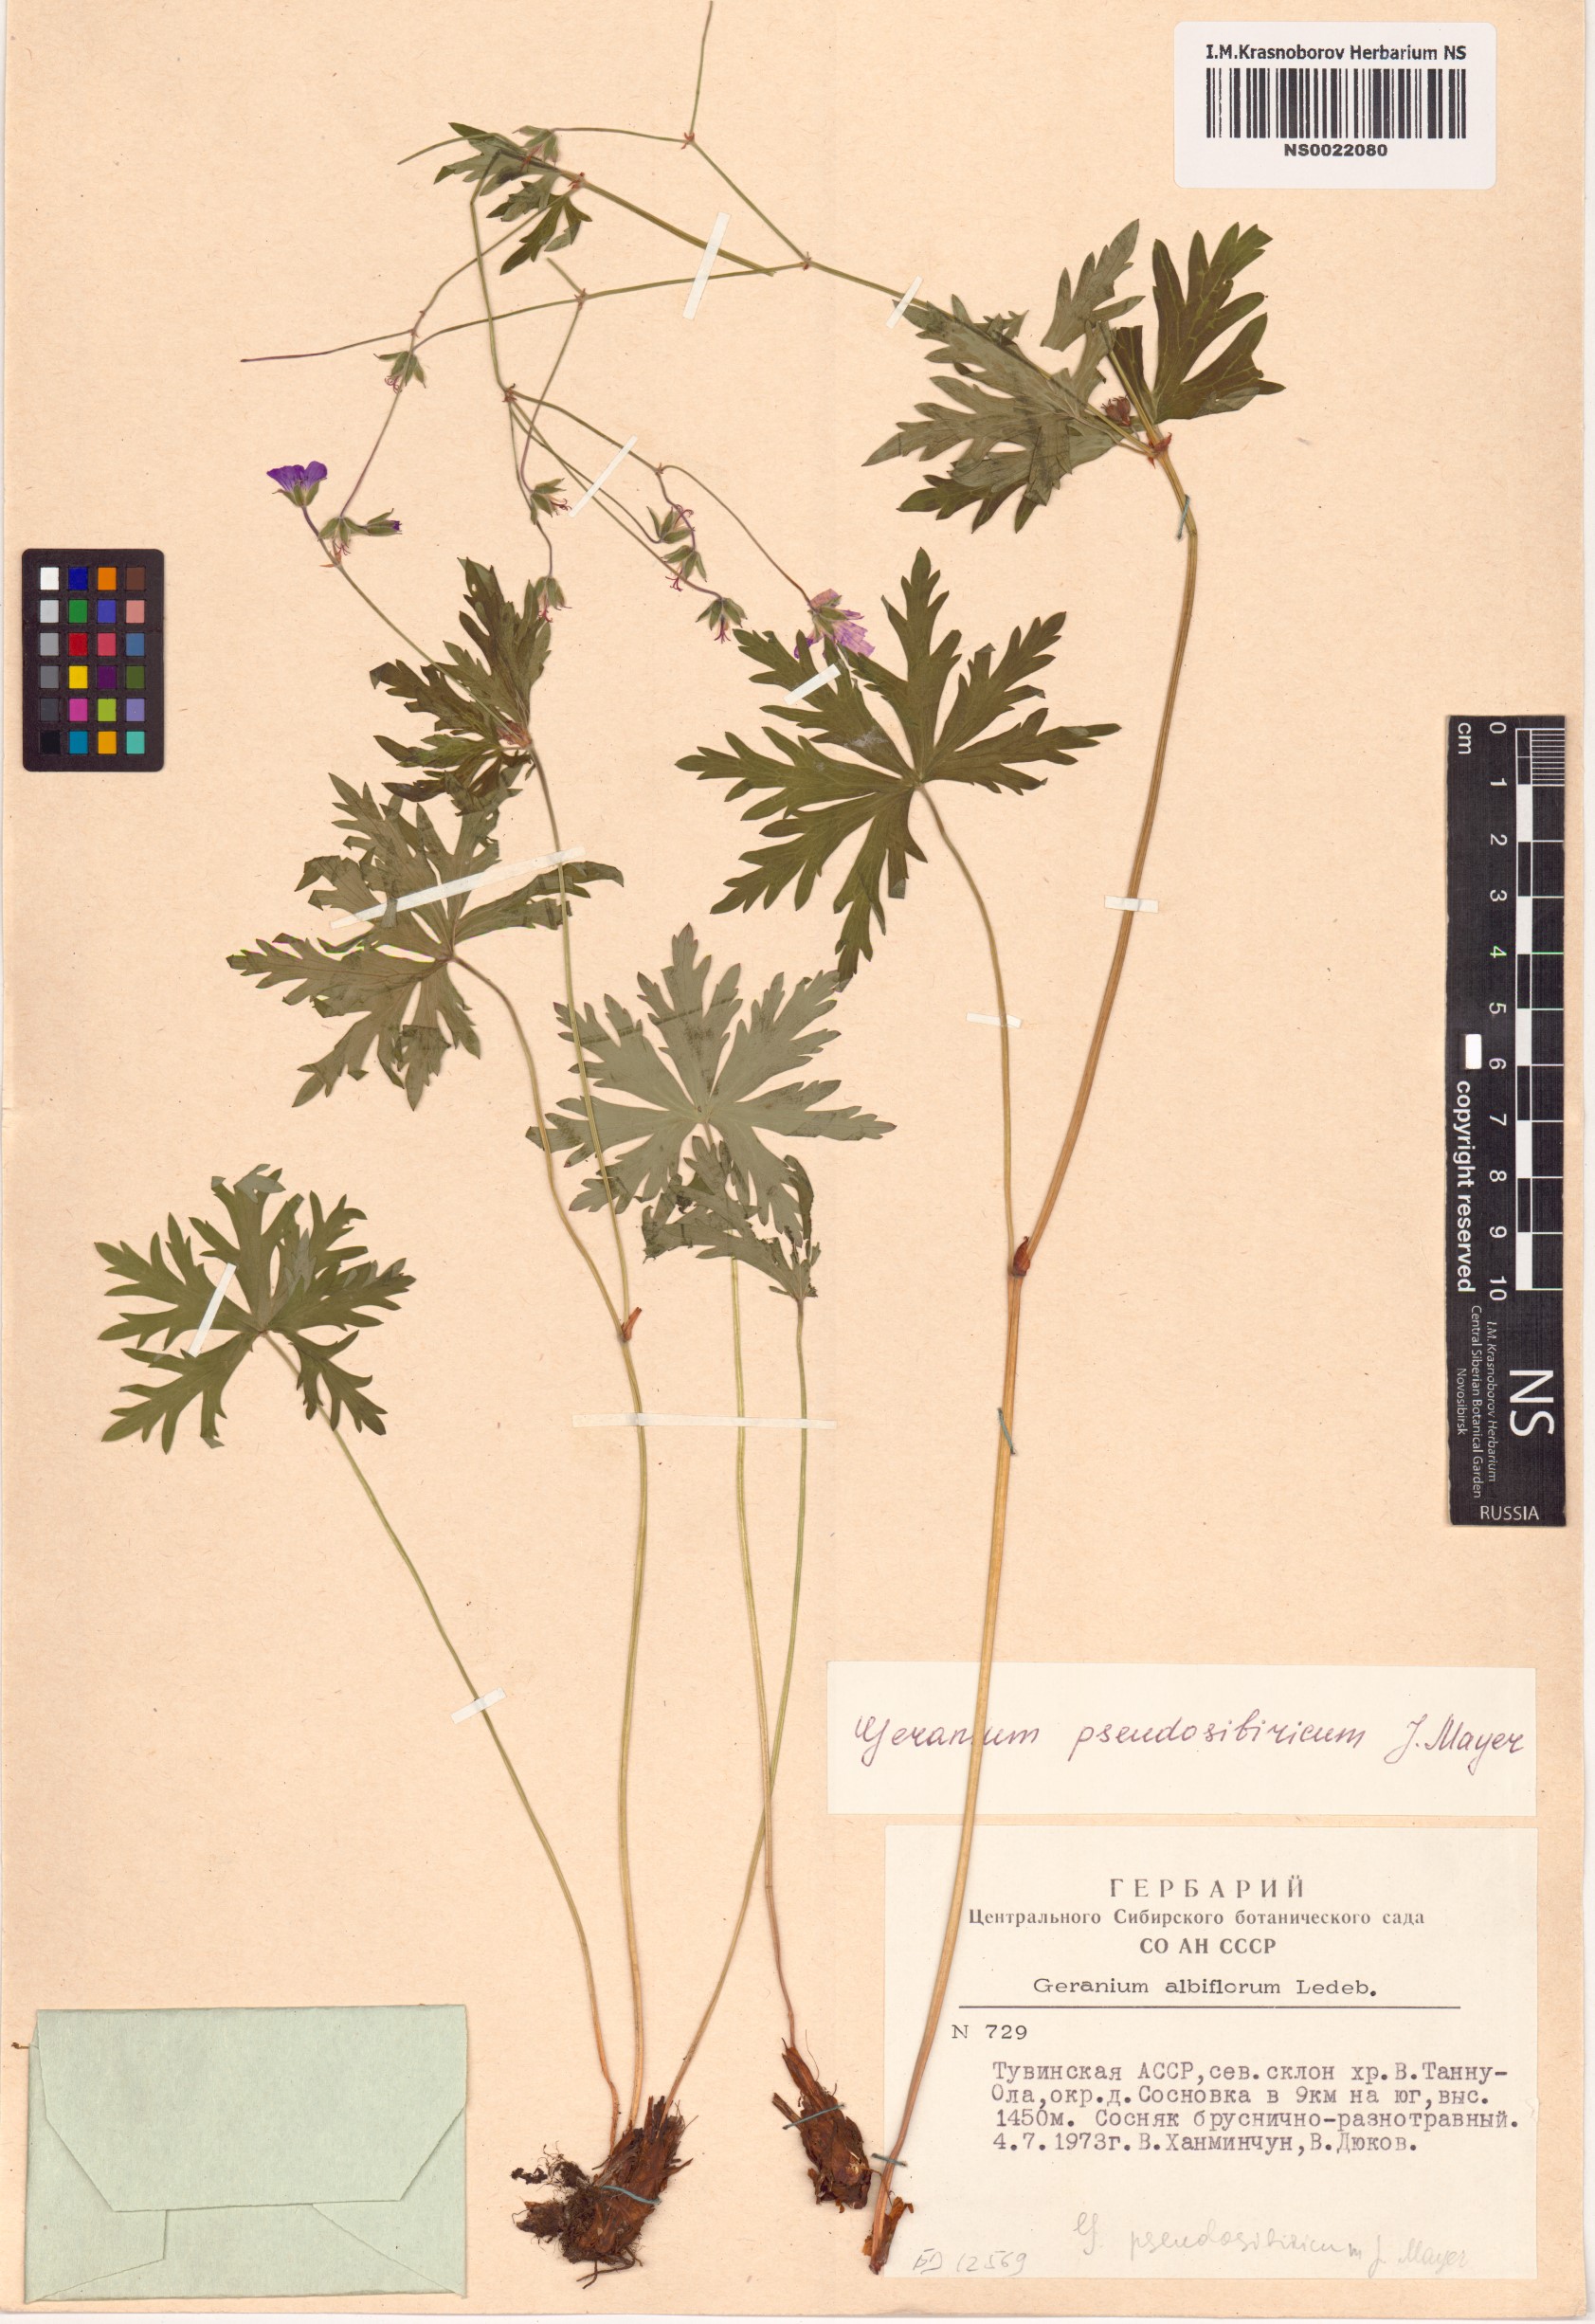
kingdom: Plantae
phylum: Tracheophyta
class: Magnoliopsida
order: Geraniales
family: Geraniaceae
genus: Geranium
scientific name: Geranium pseudosibiricum
